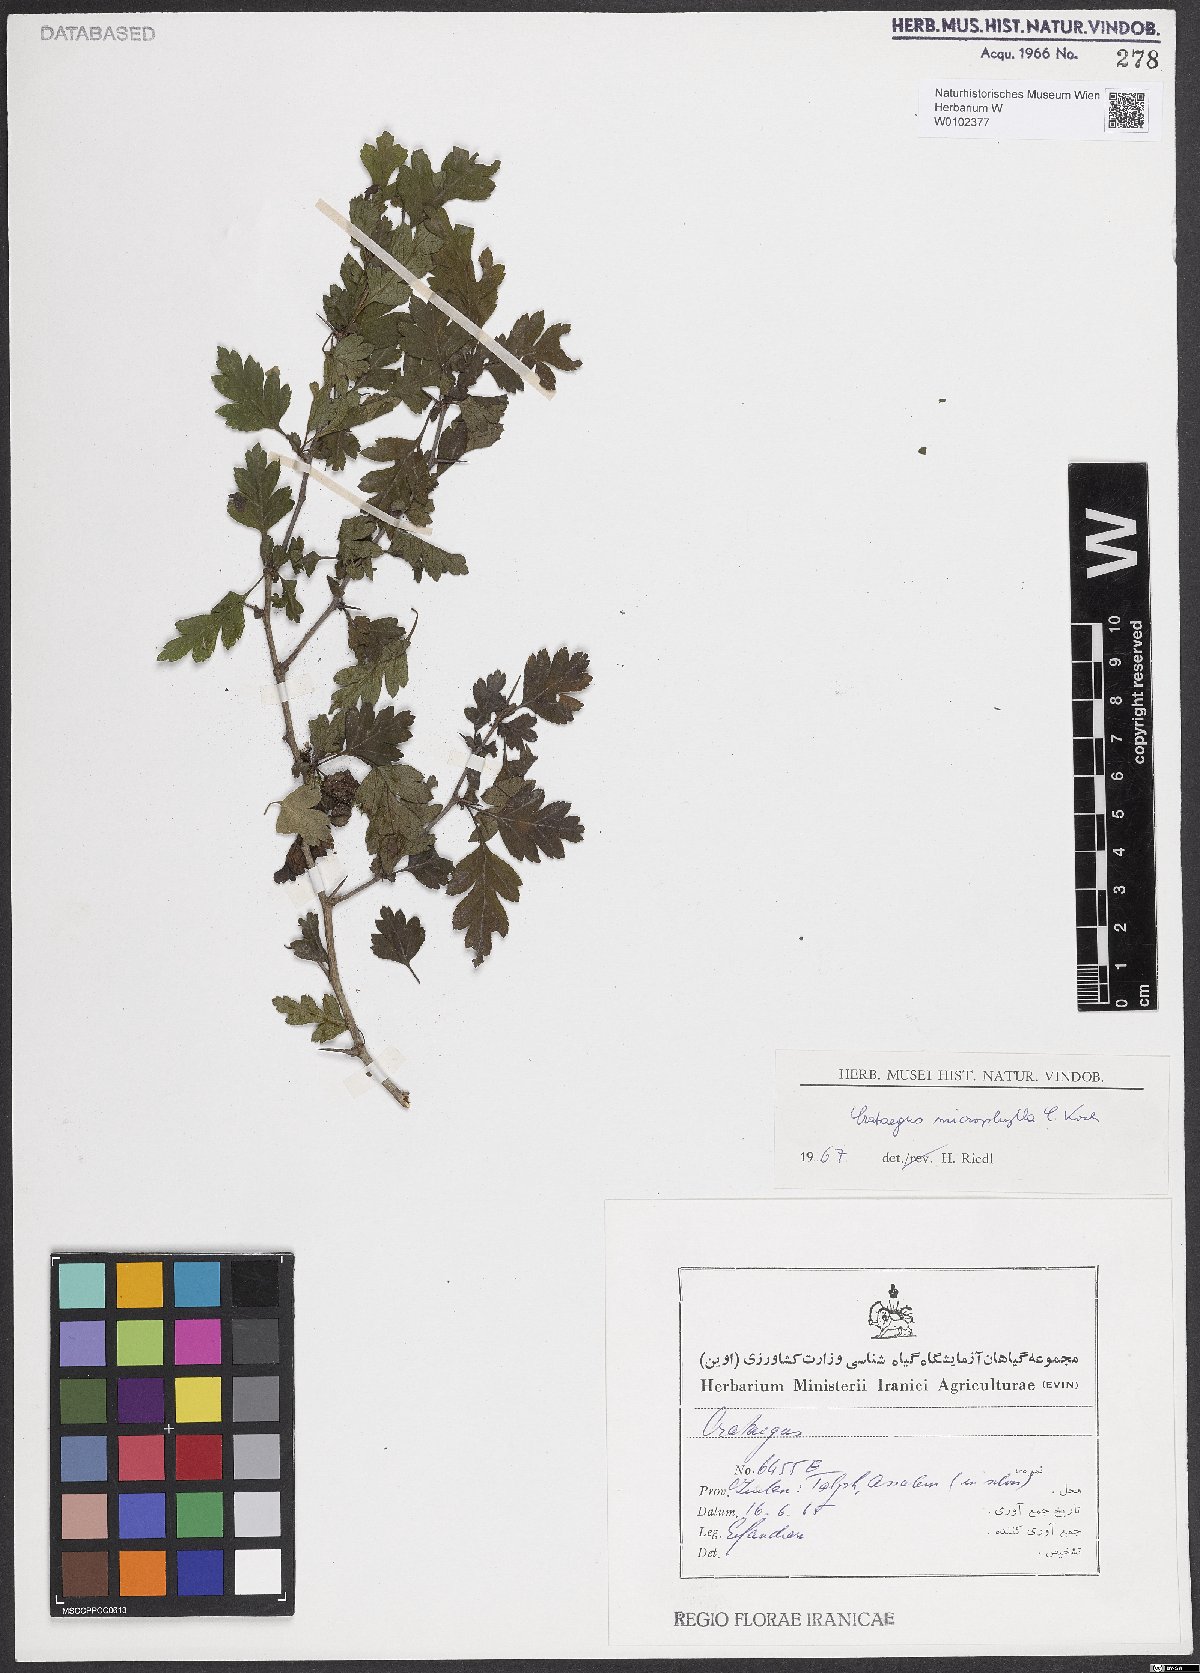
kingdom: Plantae
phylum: Tracheophyta
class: Magnoliopsida
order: Rosales
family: Rosaceae
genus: Crataegus
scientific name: Crataegus microphylla
